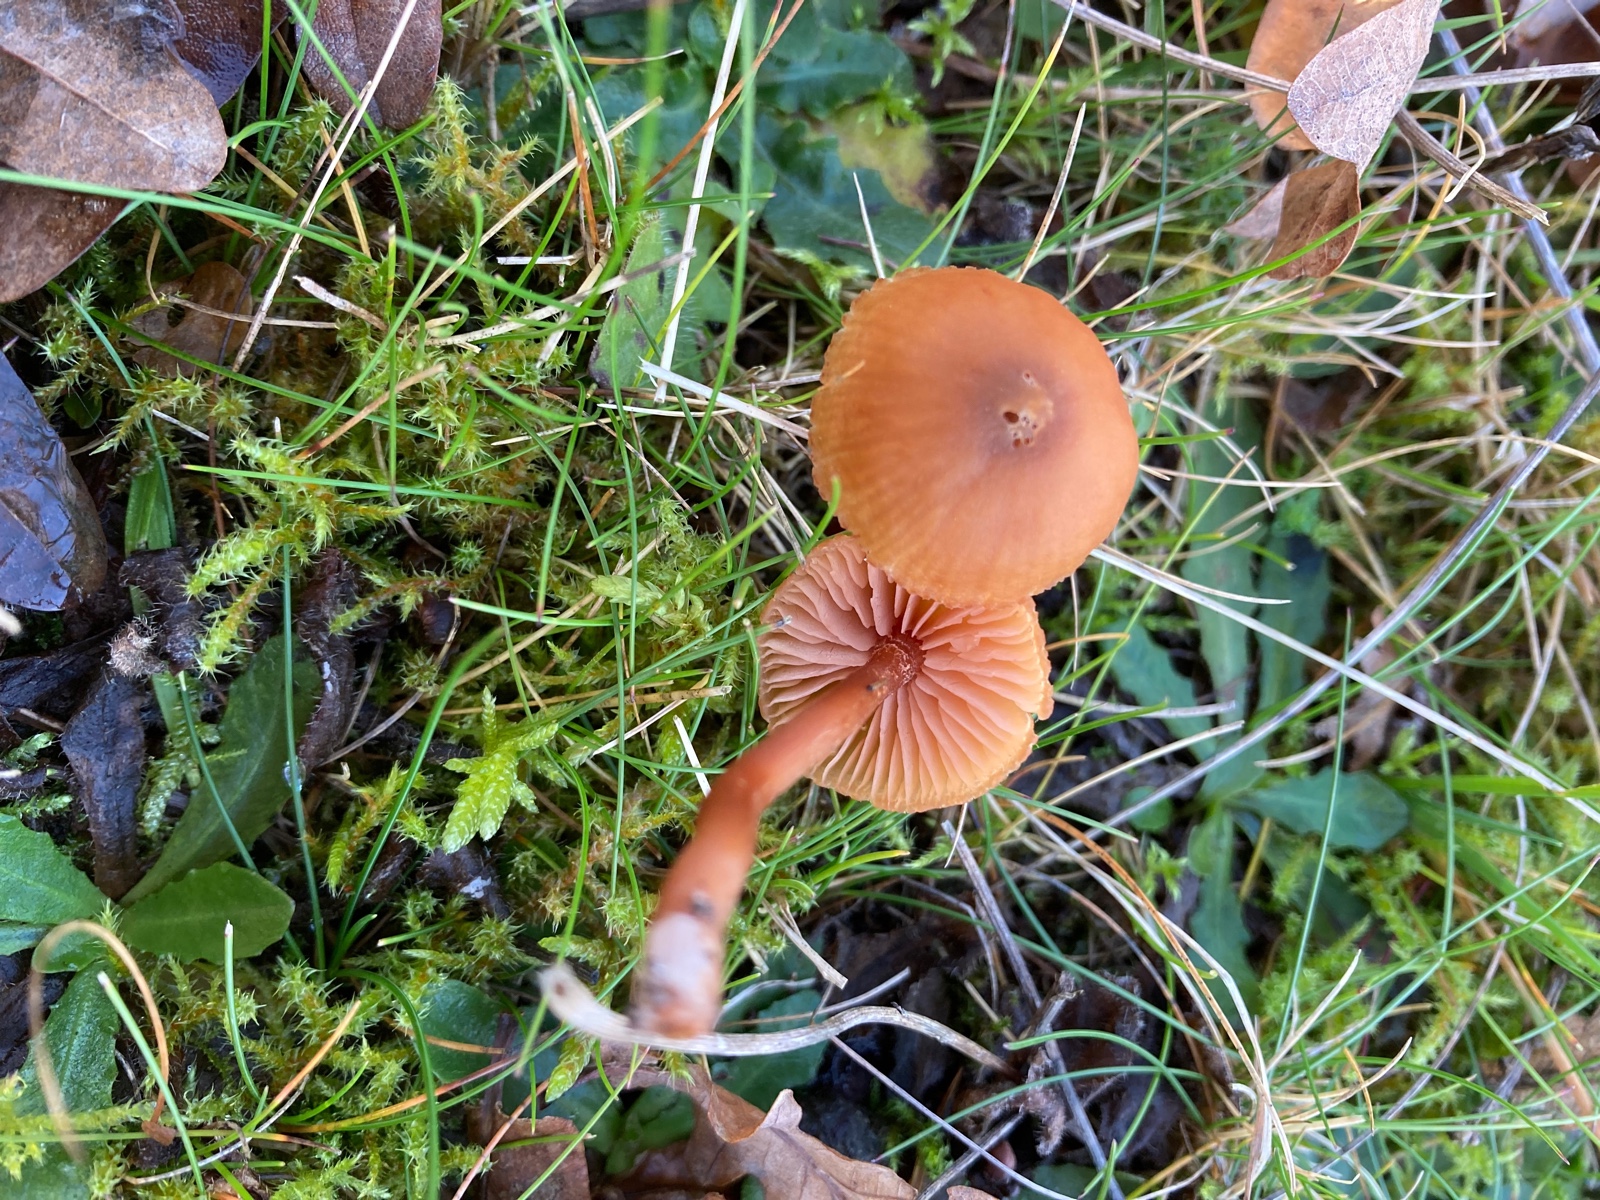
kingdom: Fungi
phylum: Basidiomycota
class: Agaricomycetes
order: Agaricales
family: Hydnangiaceae
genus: Laccaria
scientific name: Laccaria laccata
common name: rød ametysthat
